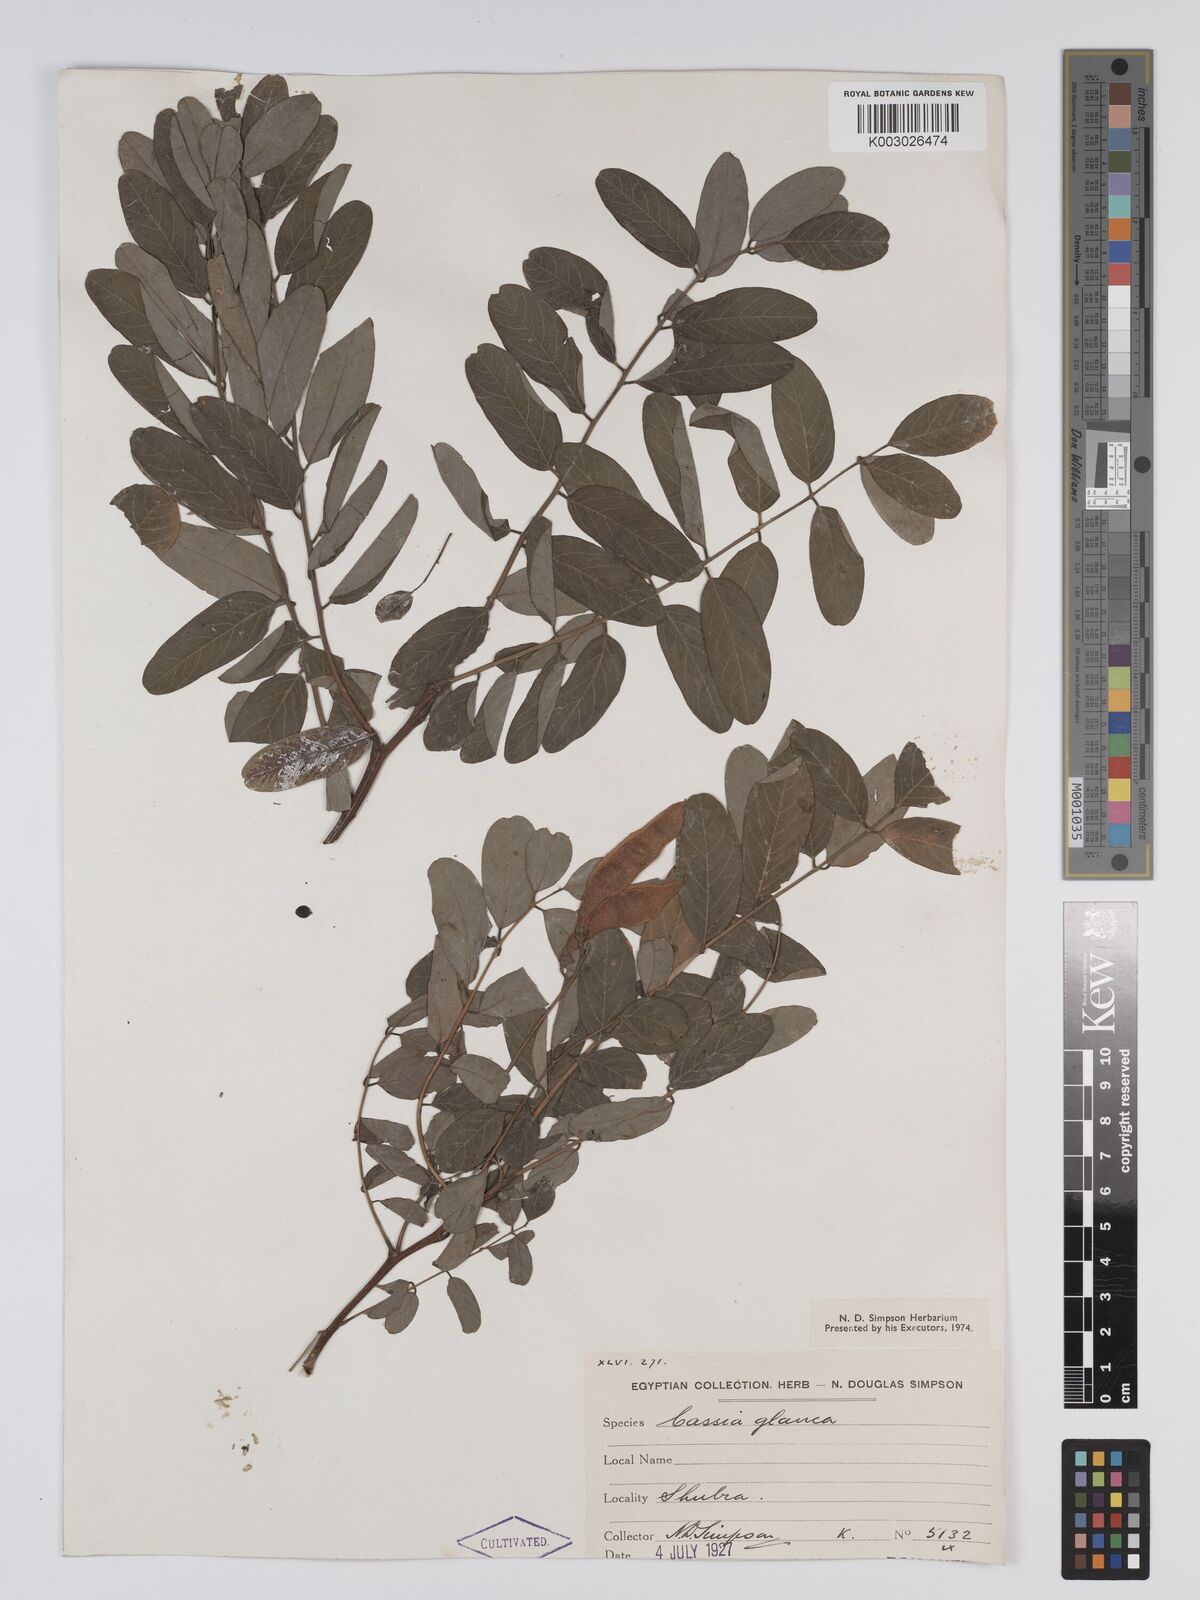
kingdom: Plantae
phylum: Tracheophyta
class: Magnoliopsida
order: Fabales
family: Fabaceae
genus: Senna
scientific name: Senna sulfurea
